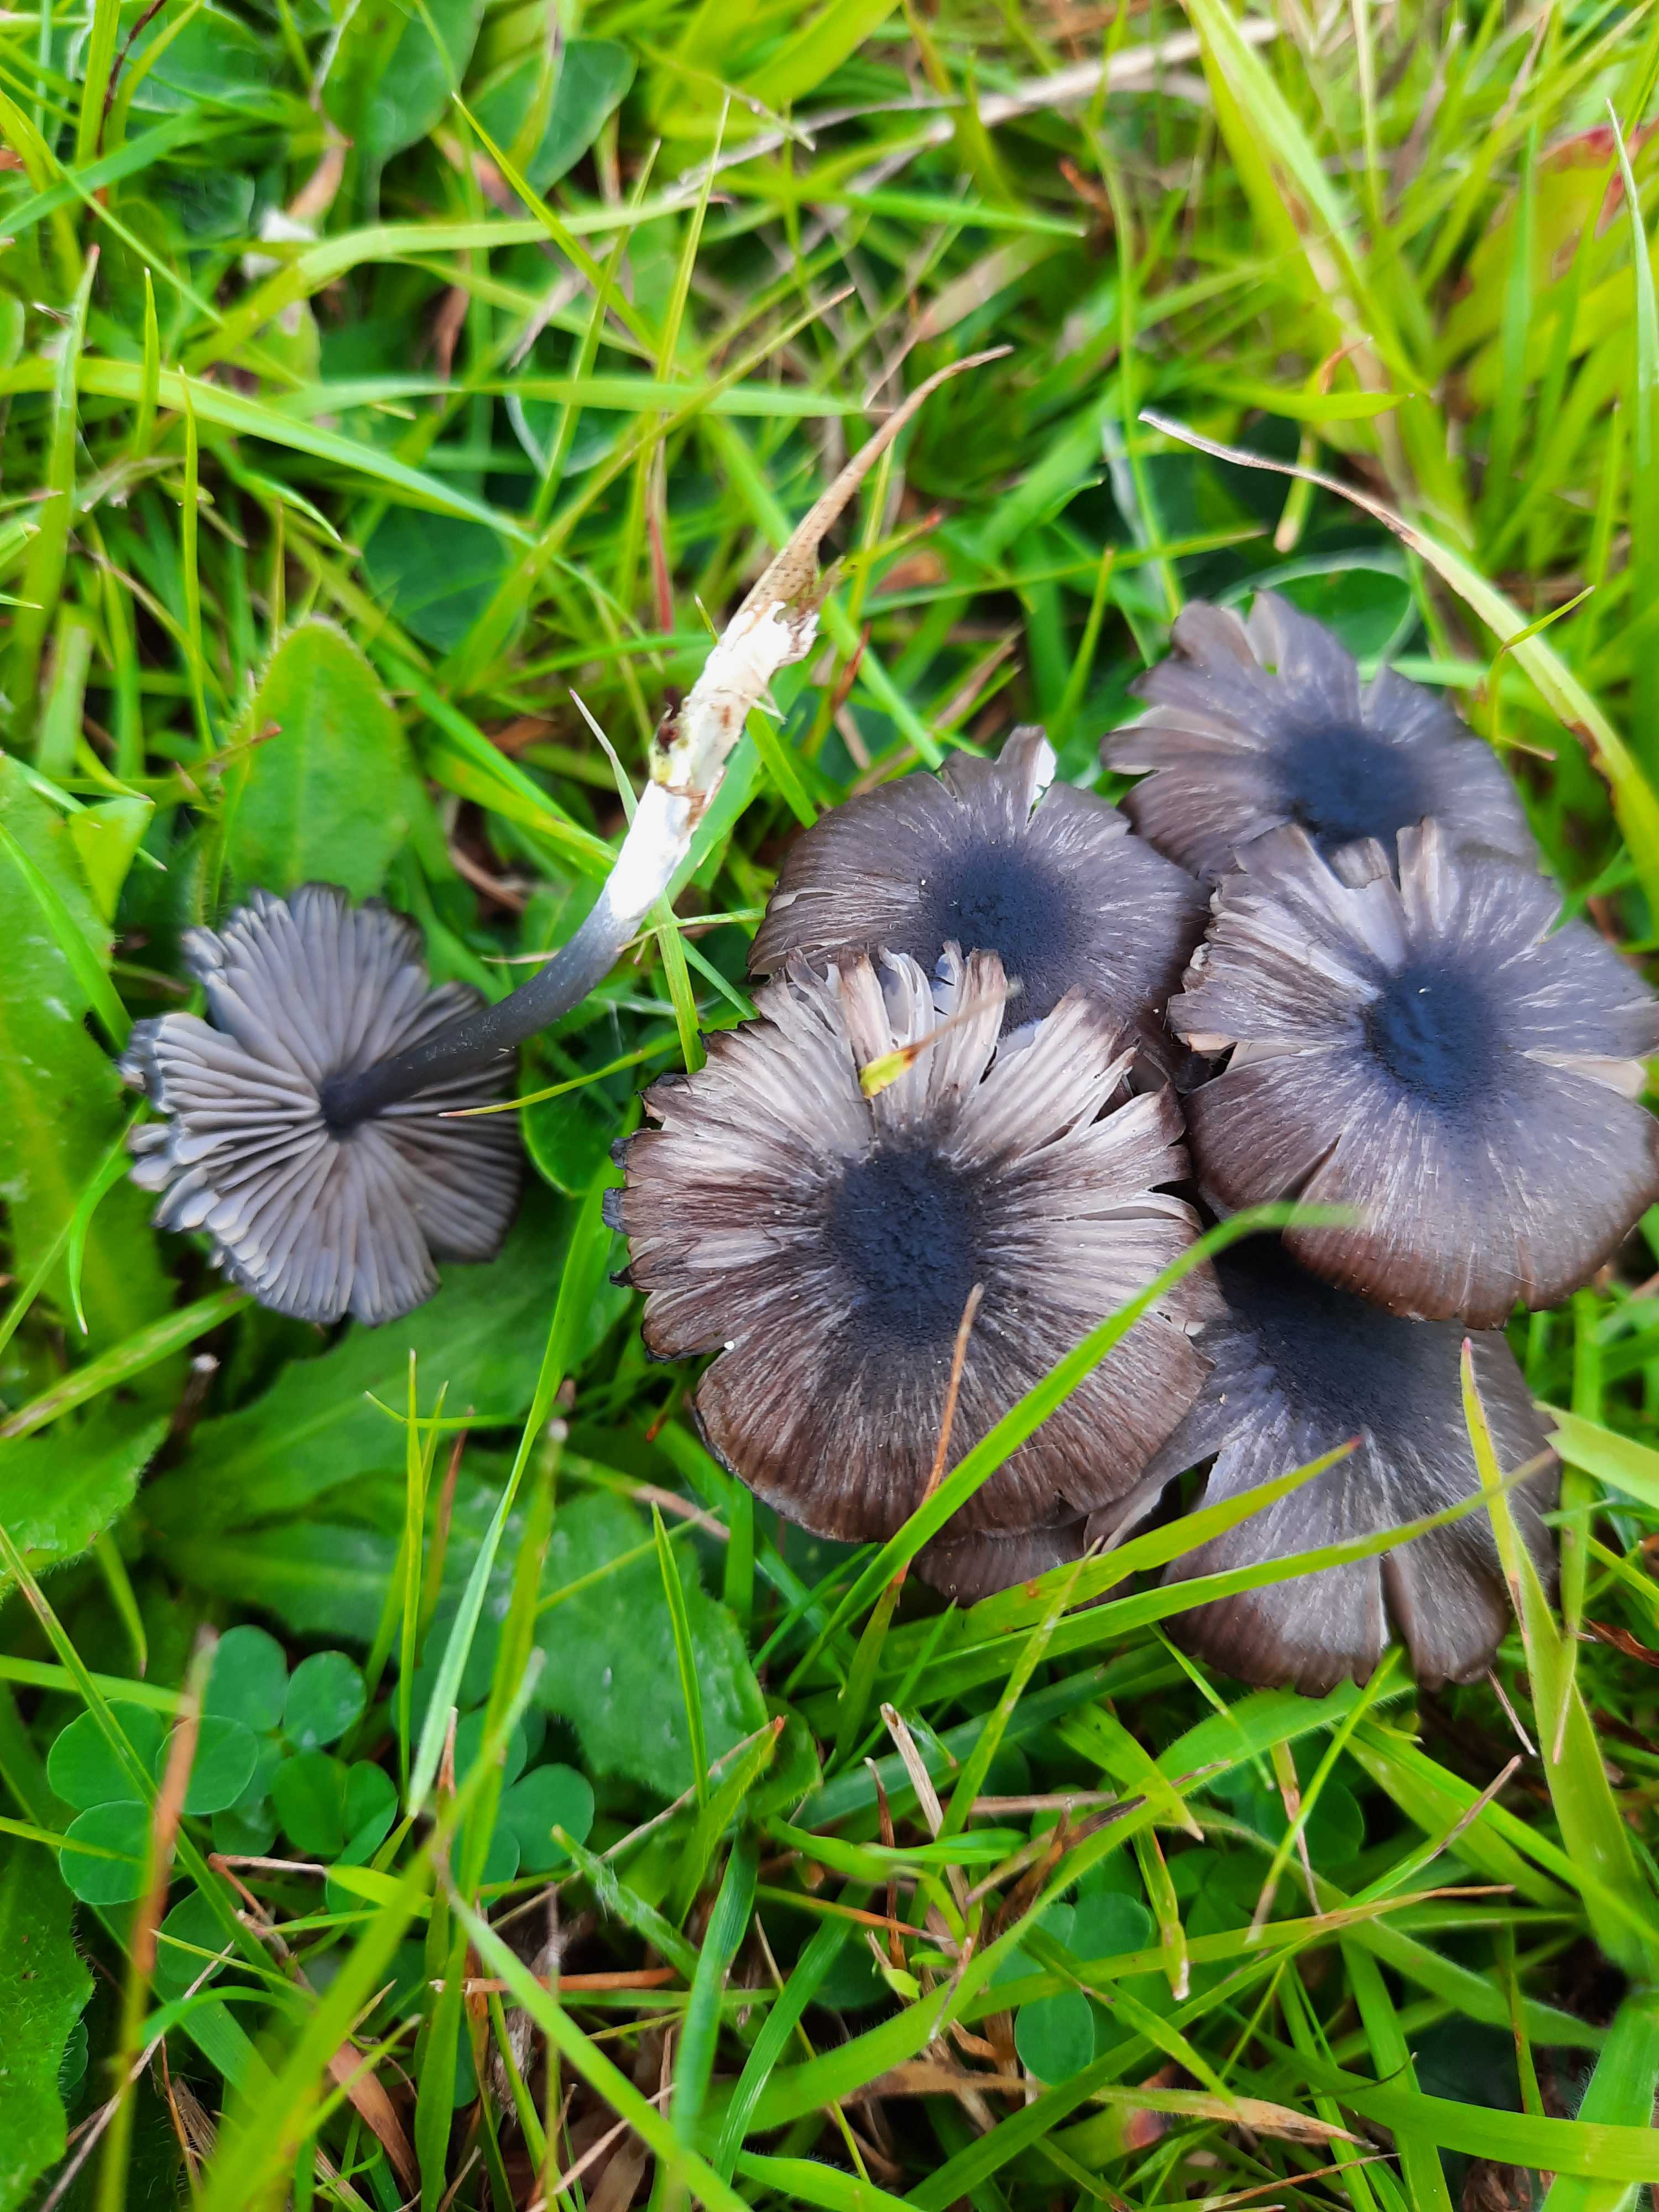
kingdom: Fungi
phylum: Basidiomycota
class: Agaricomycetes
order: Agaricales
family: Entolomataceae
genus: Entoloma
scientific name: Entoloma chalybeum
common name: blåbladet rødblad
